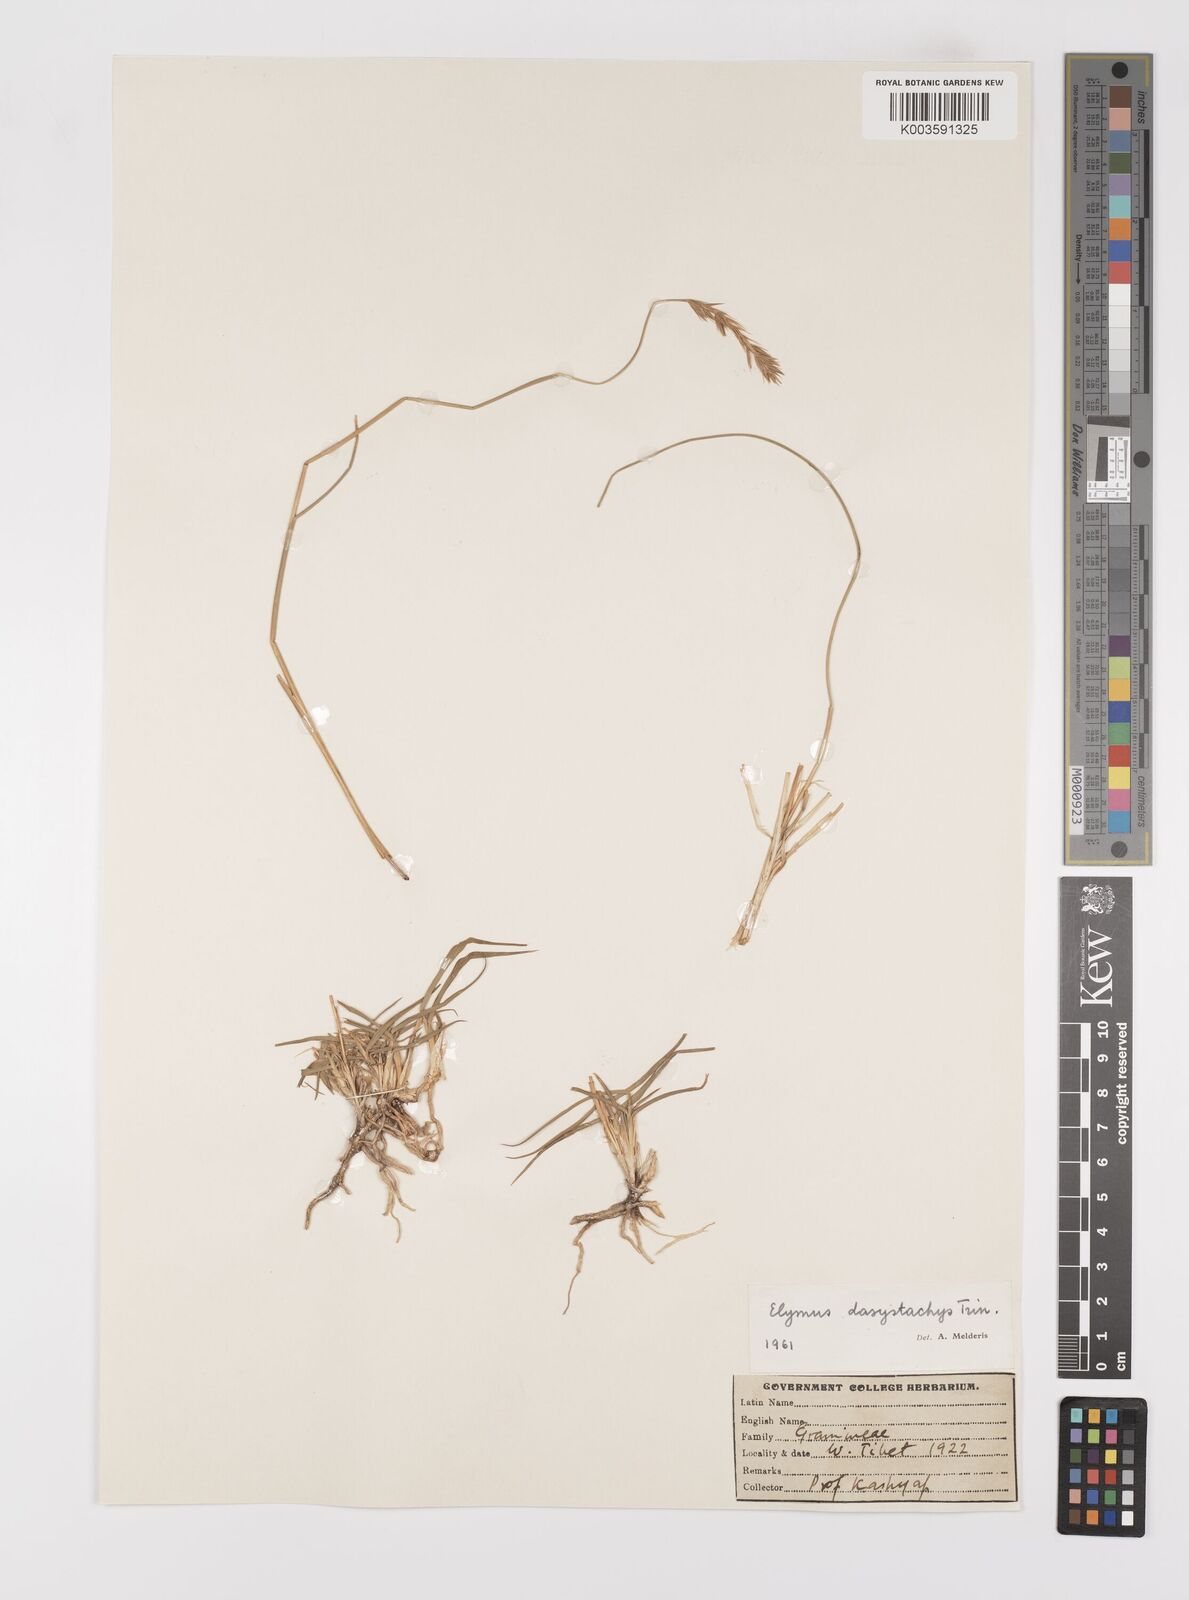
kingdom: Plantae
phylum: Tracheophyta
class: Liliopsida
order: Poales
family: Poaceae
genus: Leymus
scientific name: Leymus secalinus
